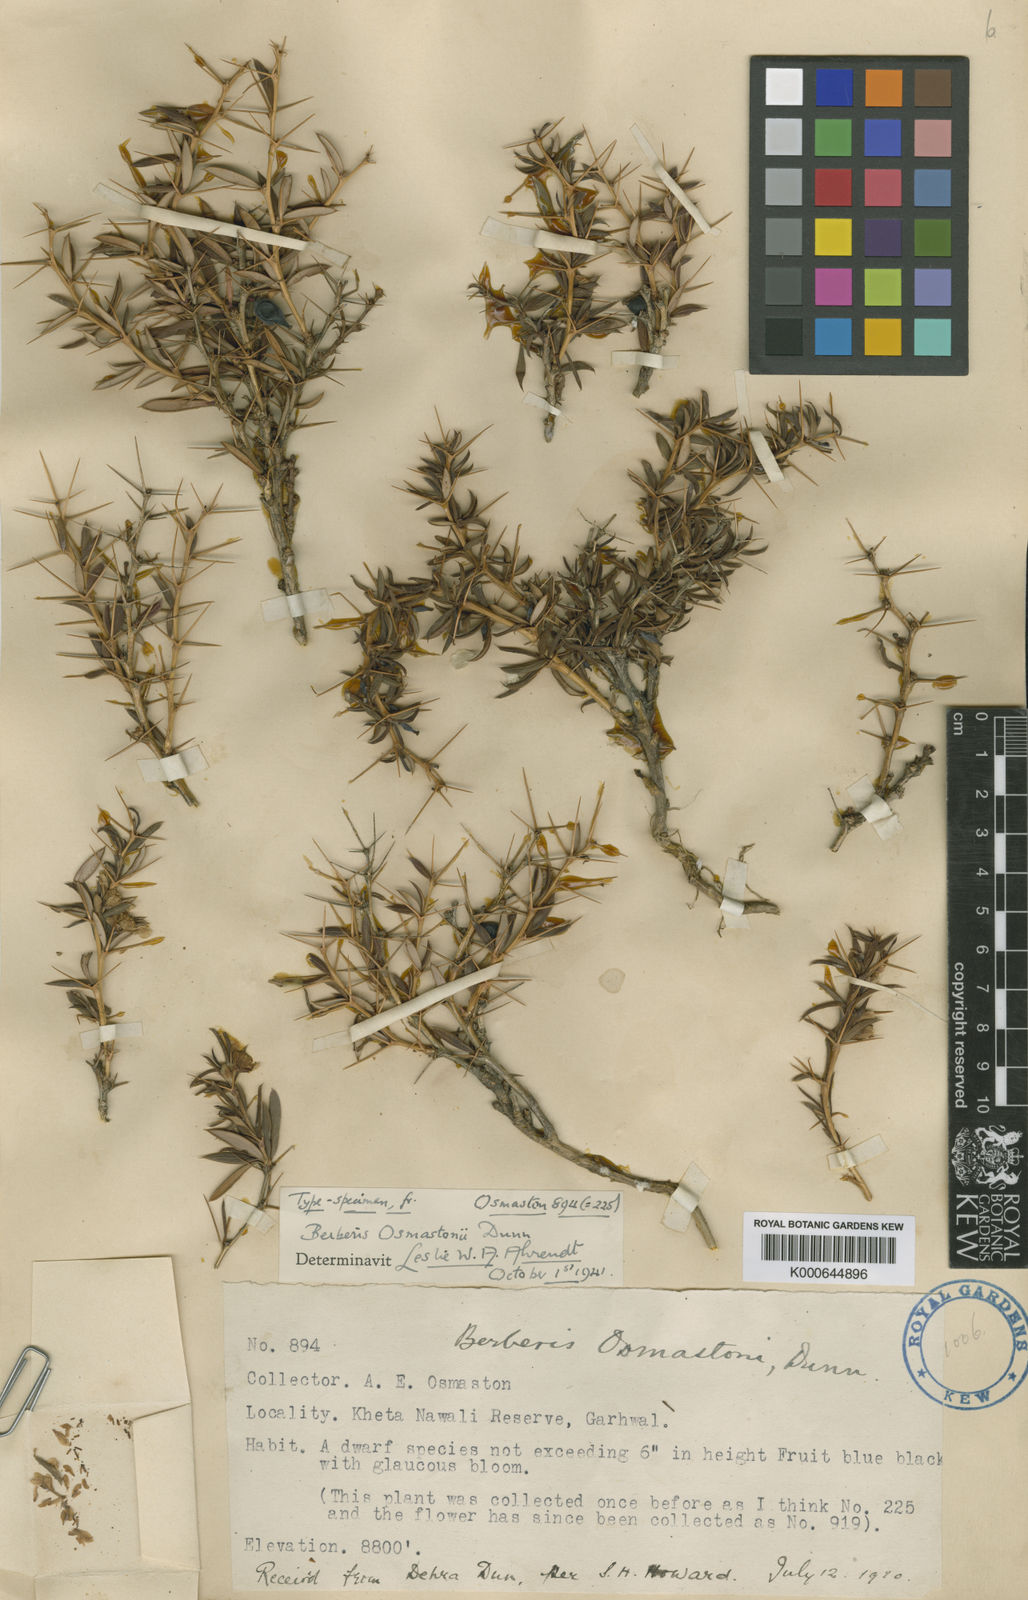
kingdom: Plantae
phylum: Tracheophyta
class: Magnoliopsida
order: Ranunculales
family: Berberidaceae
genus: Berberis
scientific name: Berberis osmastonii
